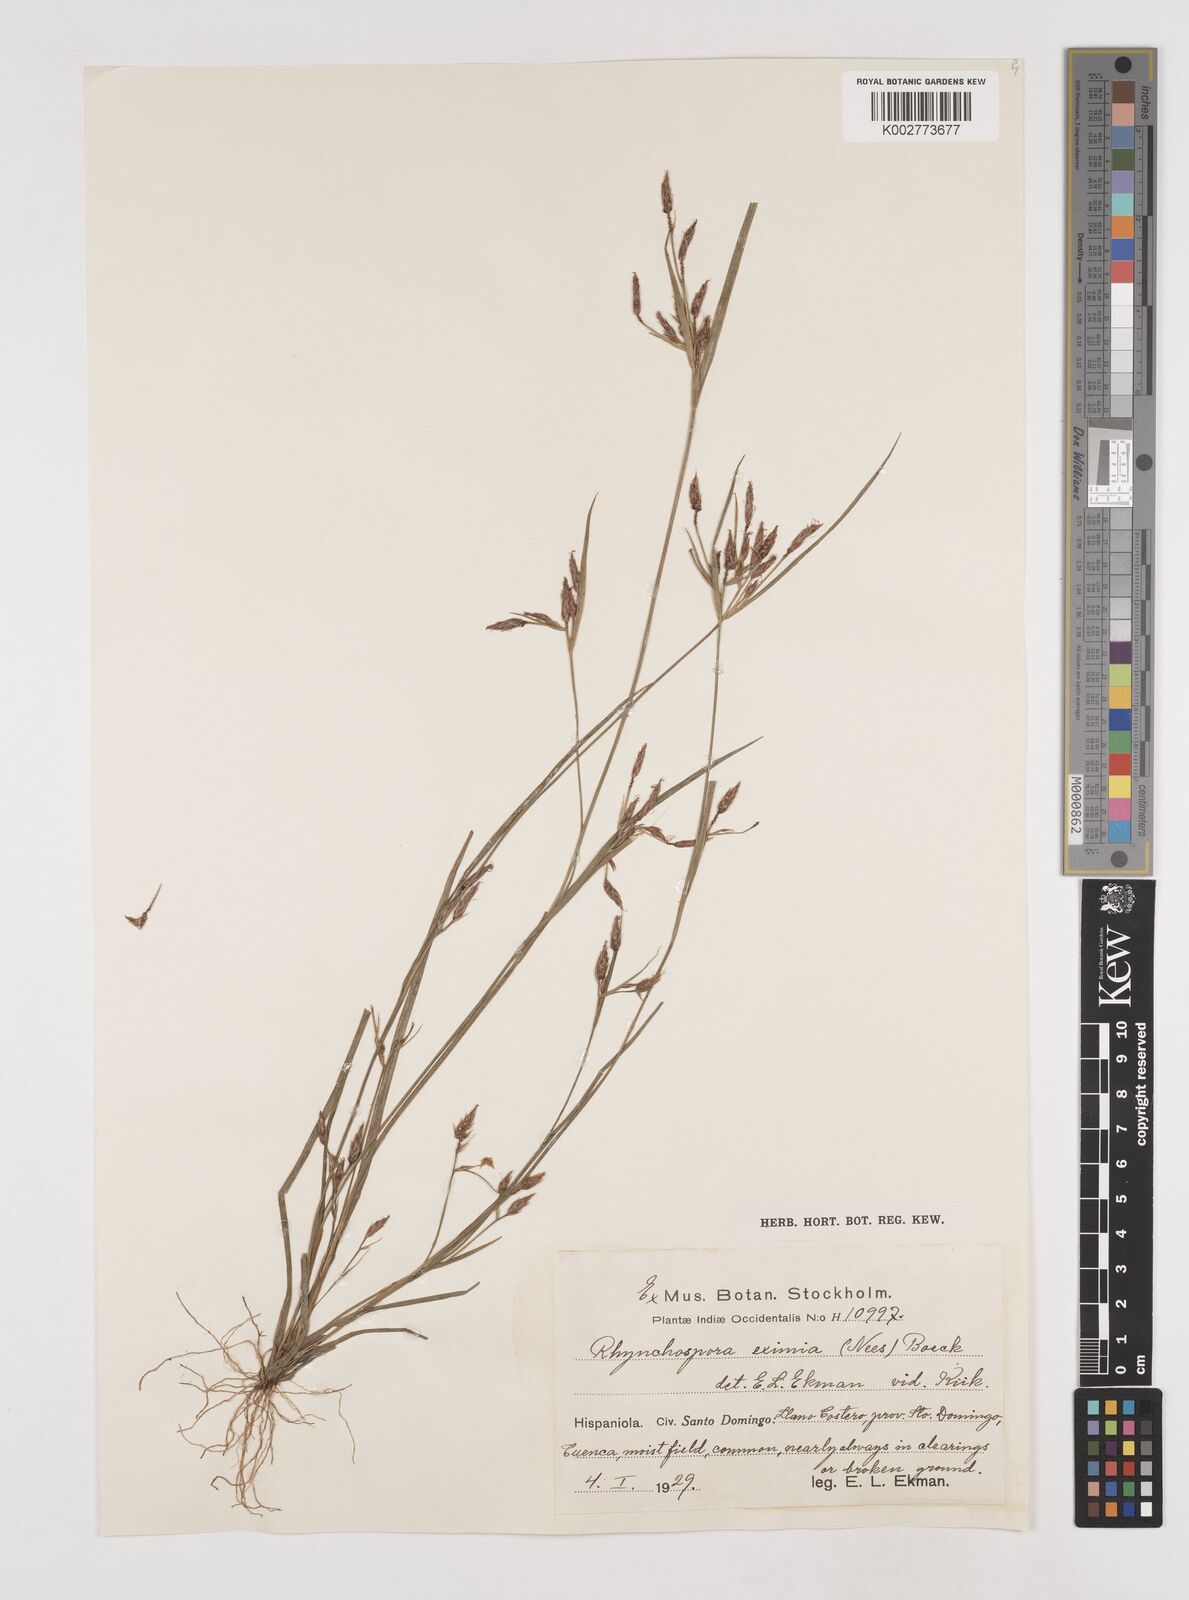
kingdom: Plantae
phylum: Tracheophyta
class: Liliopsida
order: Poales
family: Cyperaceae
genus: Rhynchospora
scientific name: Rhynchospora eximia
